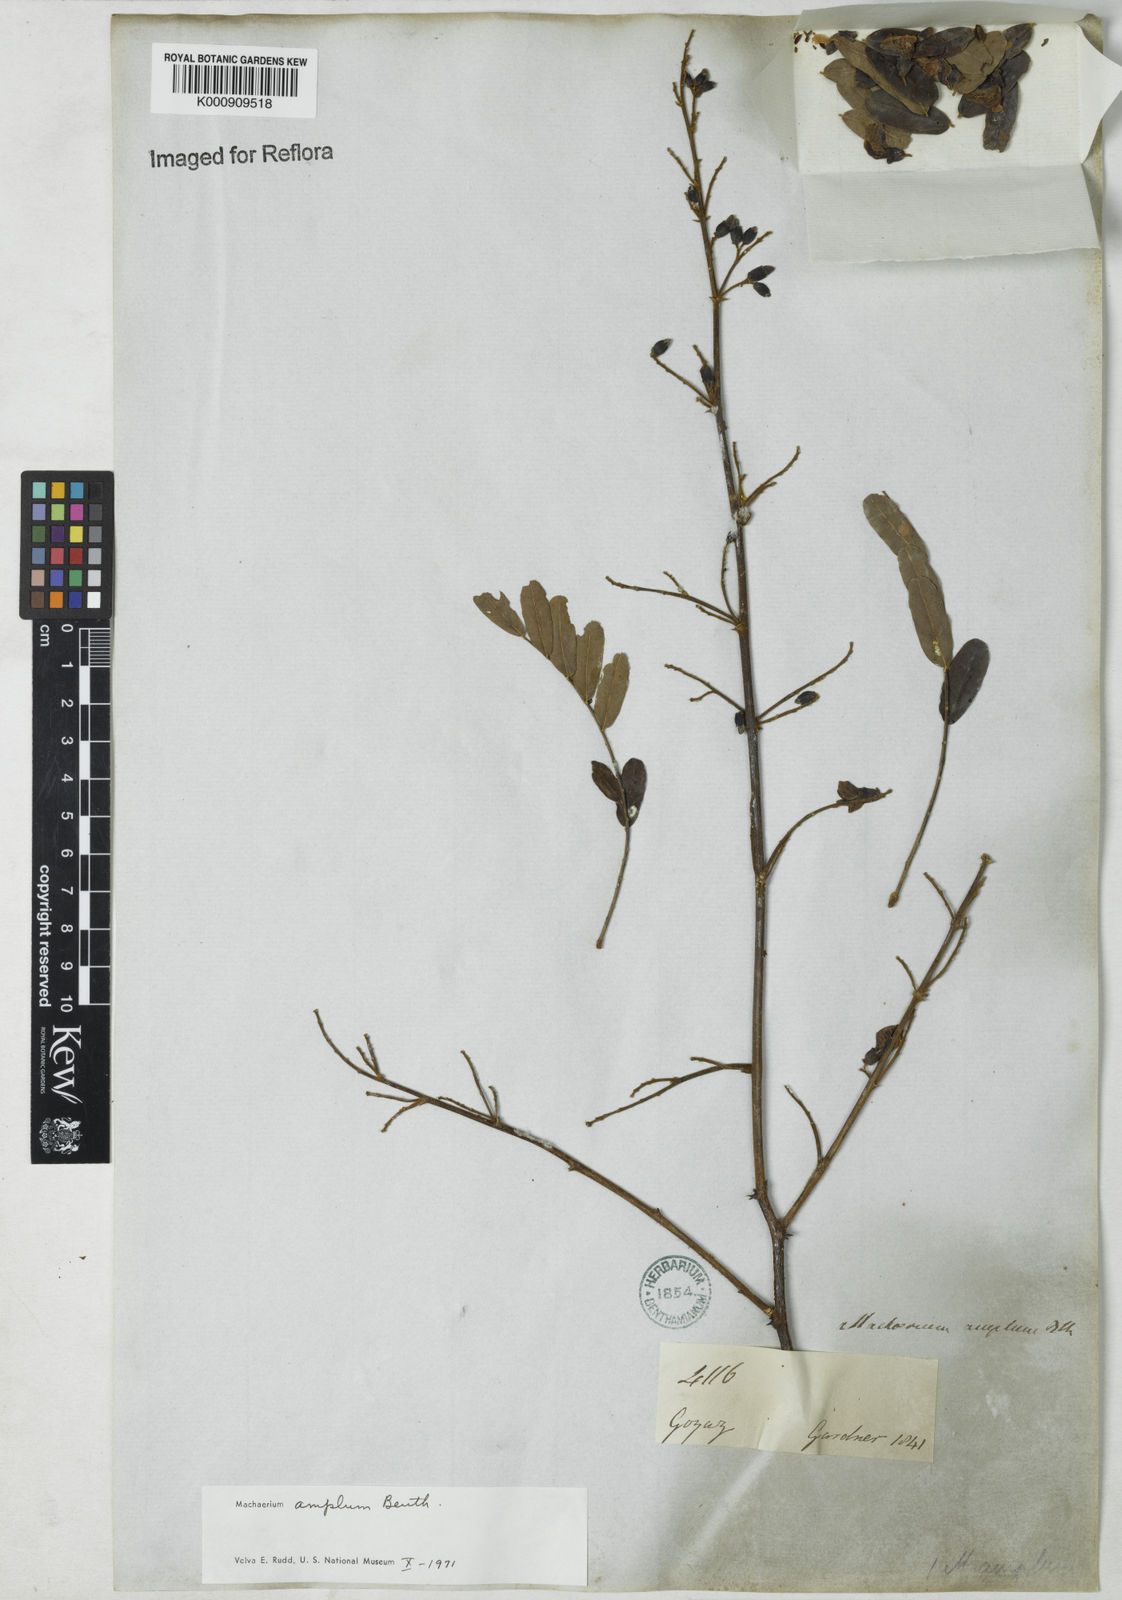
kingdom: Plantae
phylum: Tracheophyta
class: Magnoliopsida
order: Fabales
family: Fabaceae
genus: Machaerium
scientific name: Machaerium amplum
